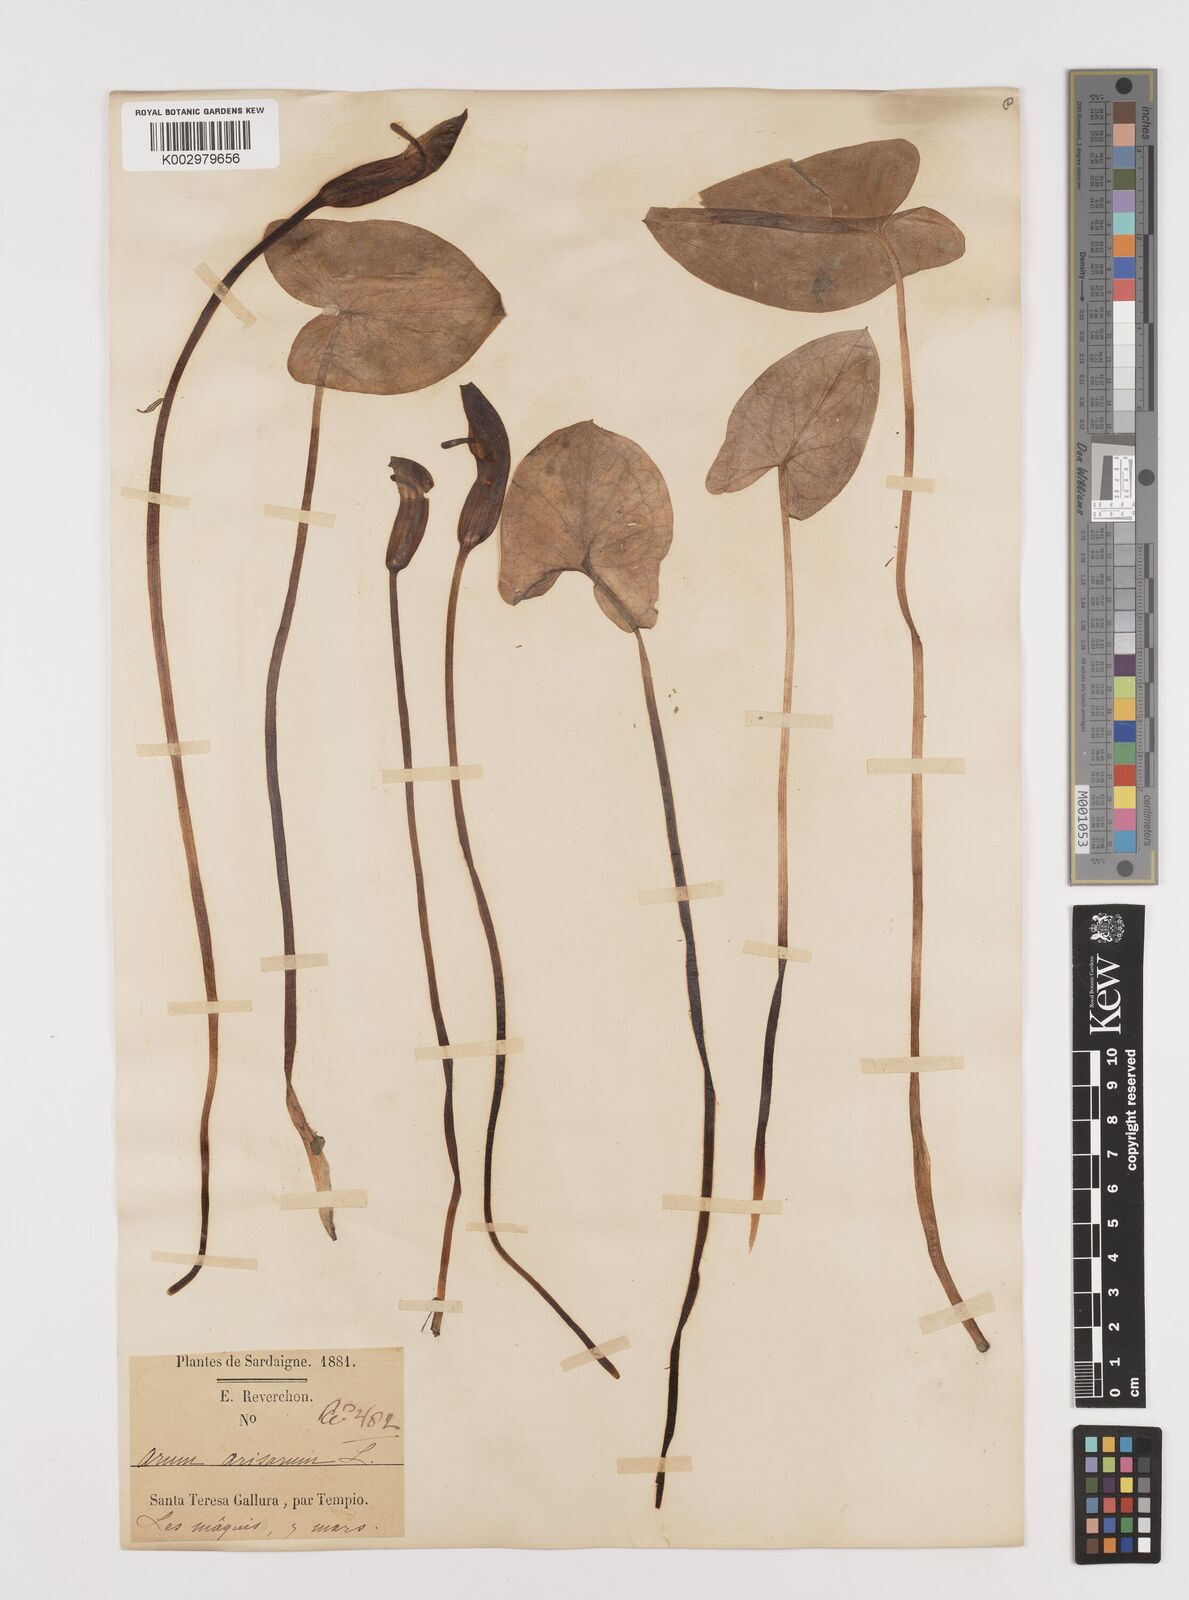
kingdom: Plantae
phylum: Tracheophyta
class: Liliopsida
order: Alismatales
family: Araceae
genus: Arisarum
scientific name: Arisarum vulgare
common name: Common arisarum
